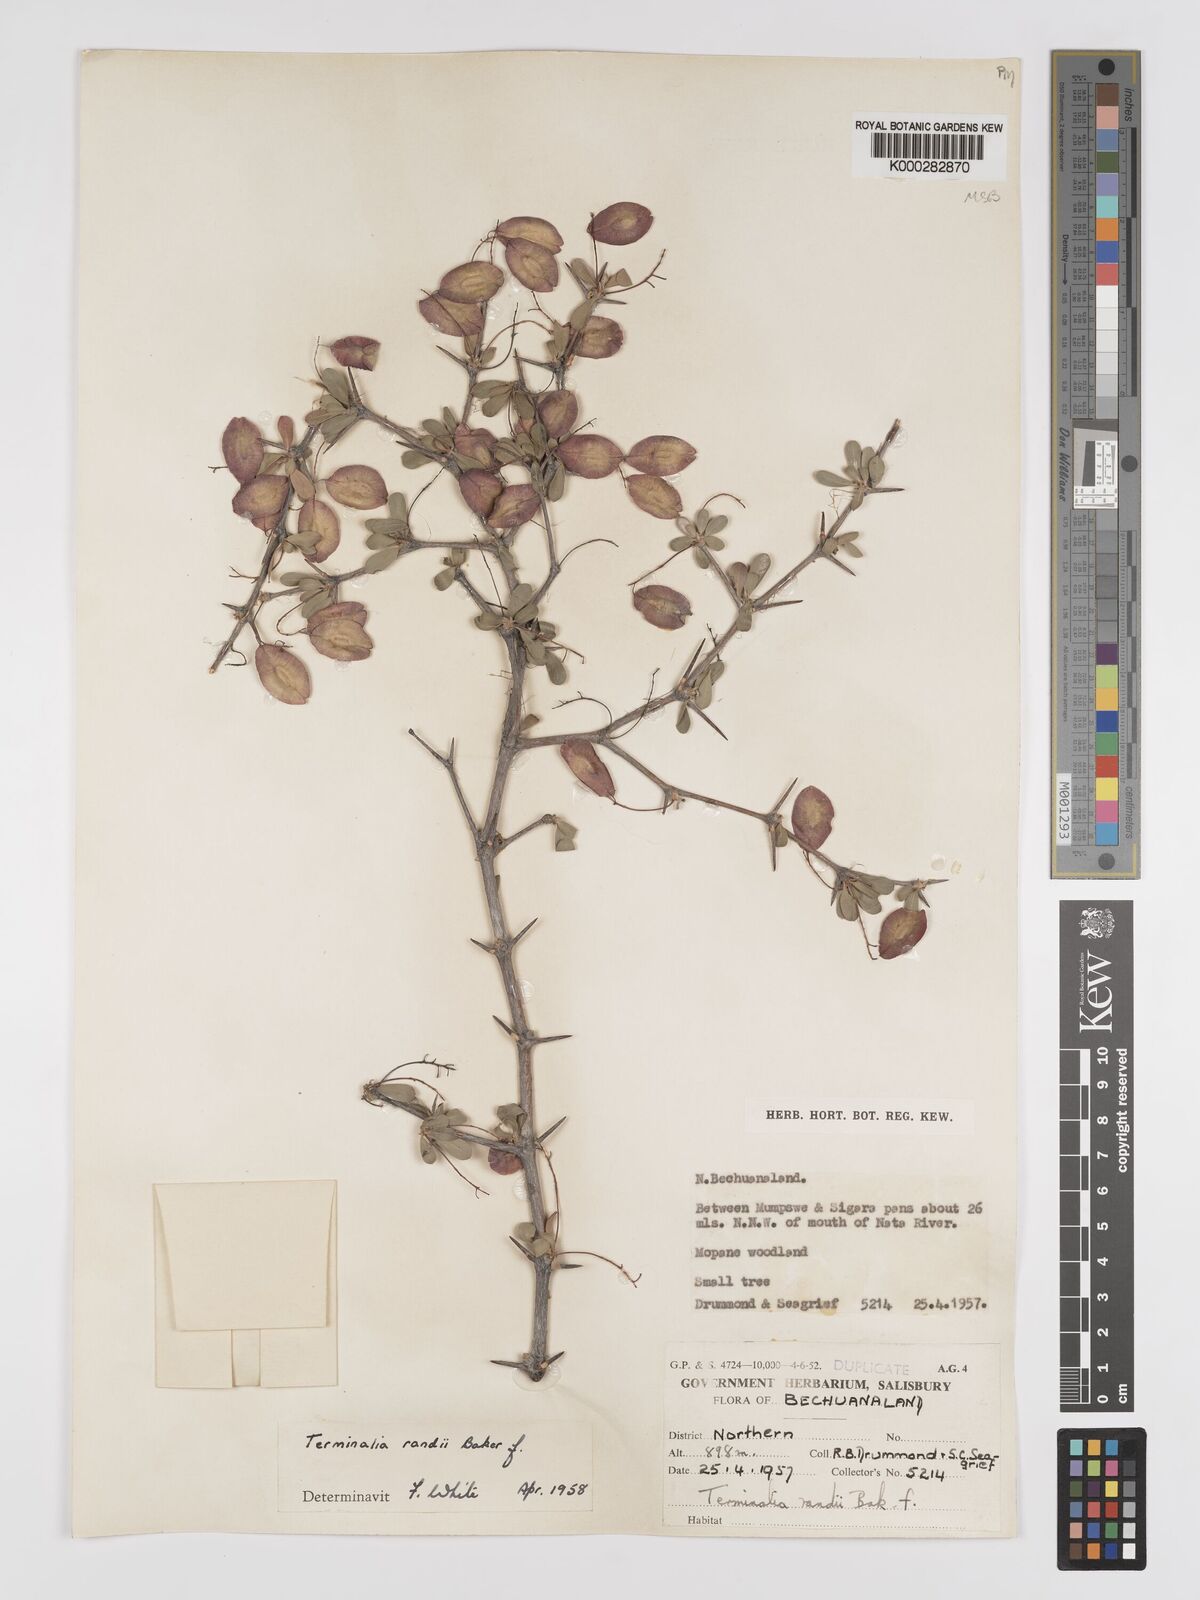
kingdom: Plantae
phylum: Tracheophyta
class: Magnoliopsida
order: Myrtales
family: Combretaceae
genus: Terminalia
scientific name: Terminalia randii
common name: Small-leaved terminalia
